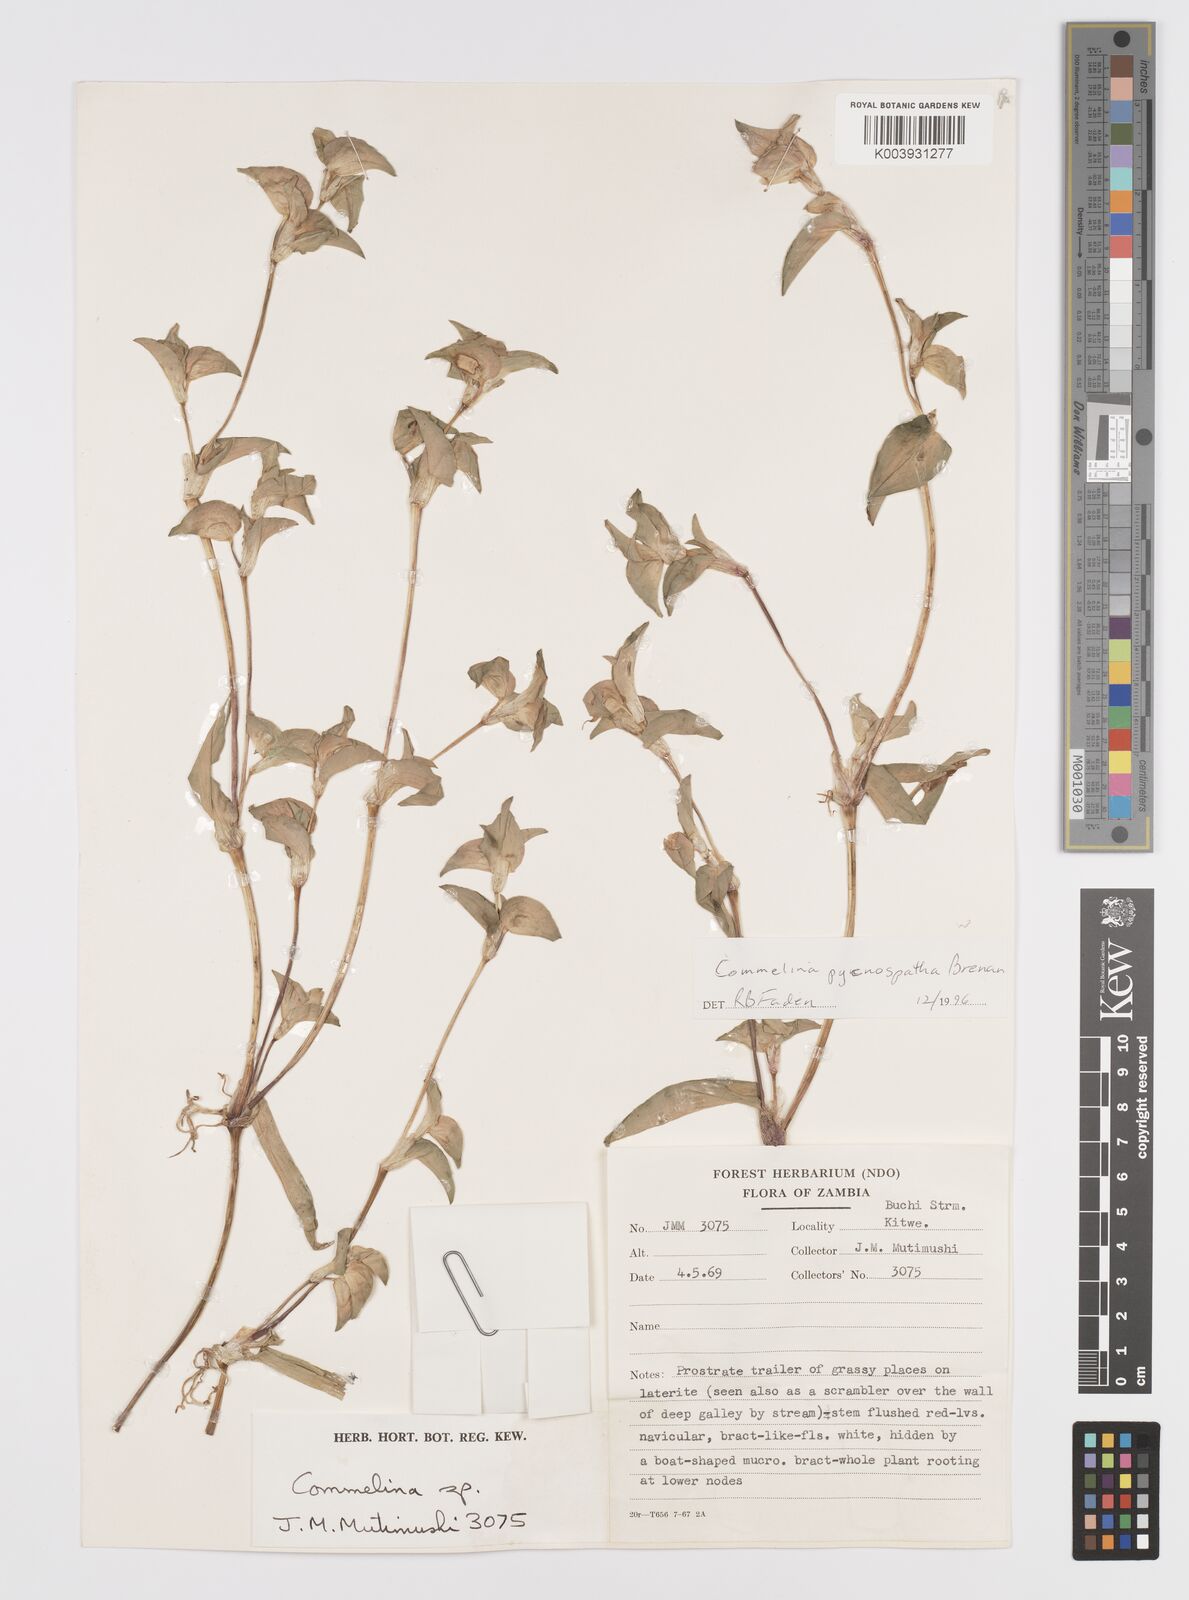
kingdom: Plantae
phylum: Tracheophyta
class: Liliopsida
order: Commelinales
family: Commelinaceae
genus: Commelina
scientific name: Commelina pycnospatha
